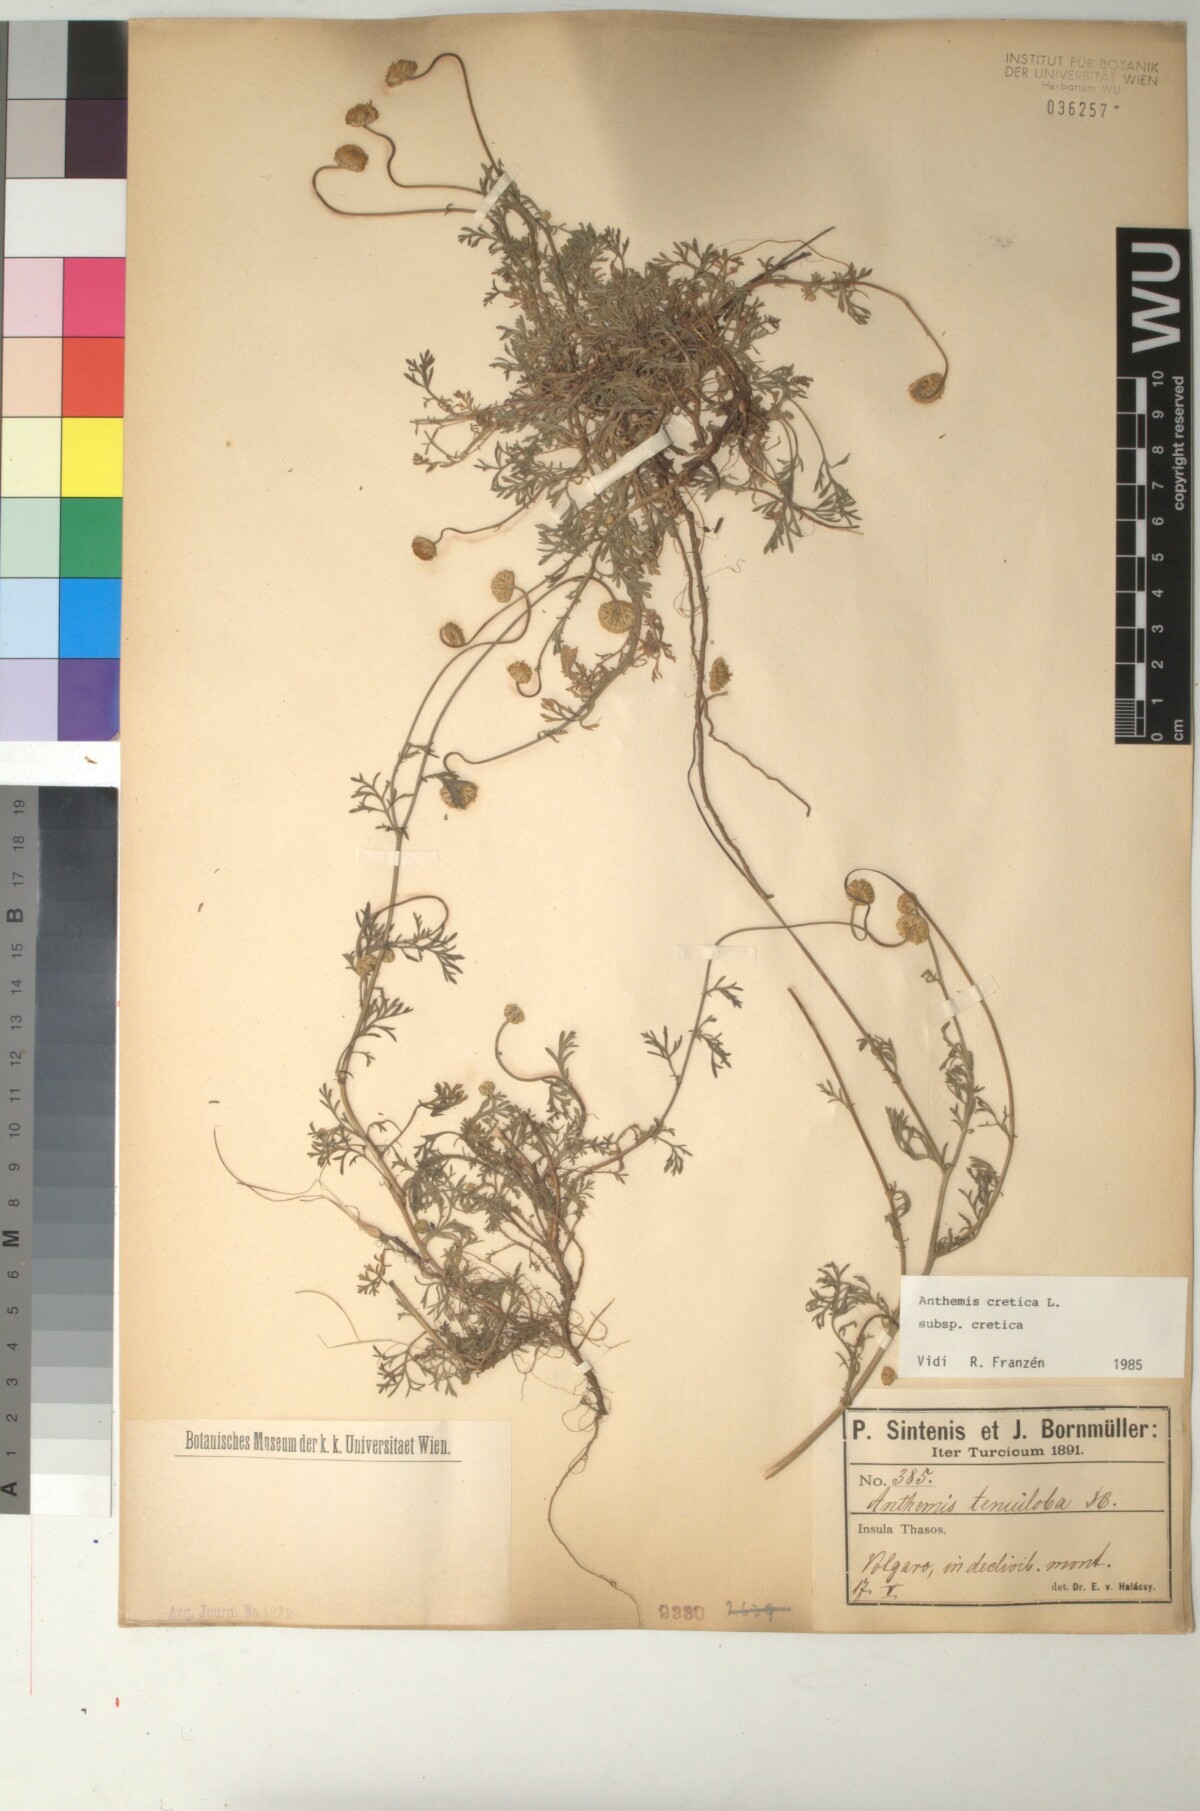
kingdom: Plantae
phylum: Tracheophyta
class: Magnoliopsida
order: Asterales
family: Asteraceae
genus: Anthemis
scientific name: Anthemis cretica
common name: Mountain dog-daisy
